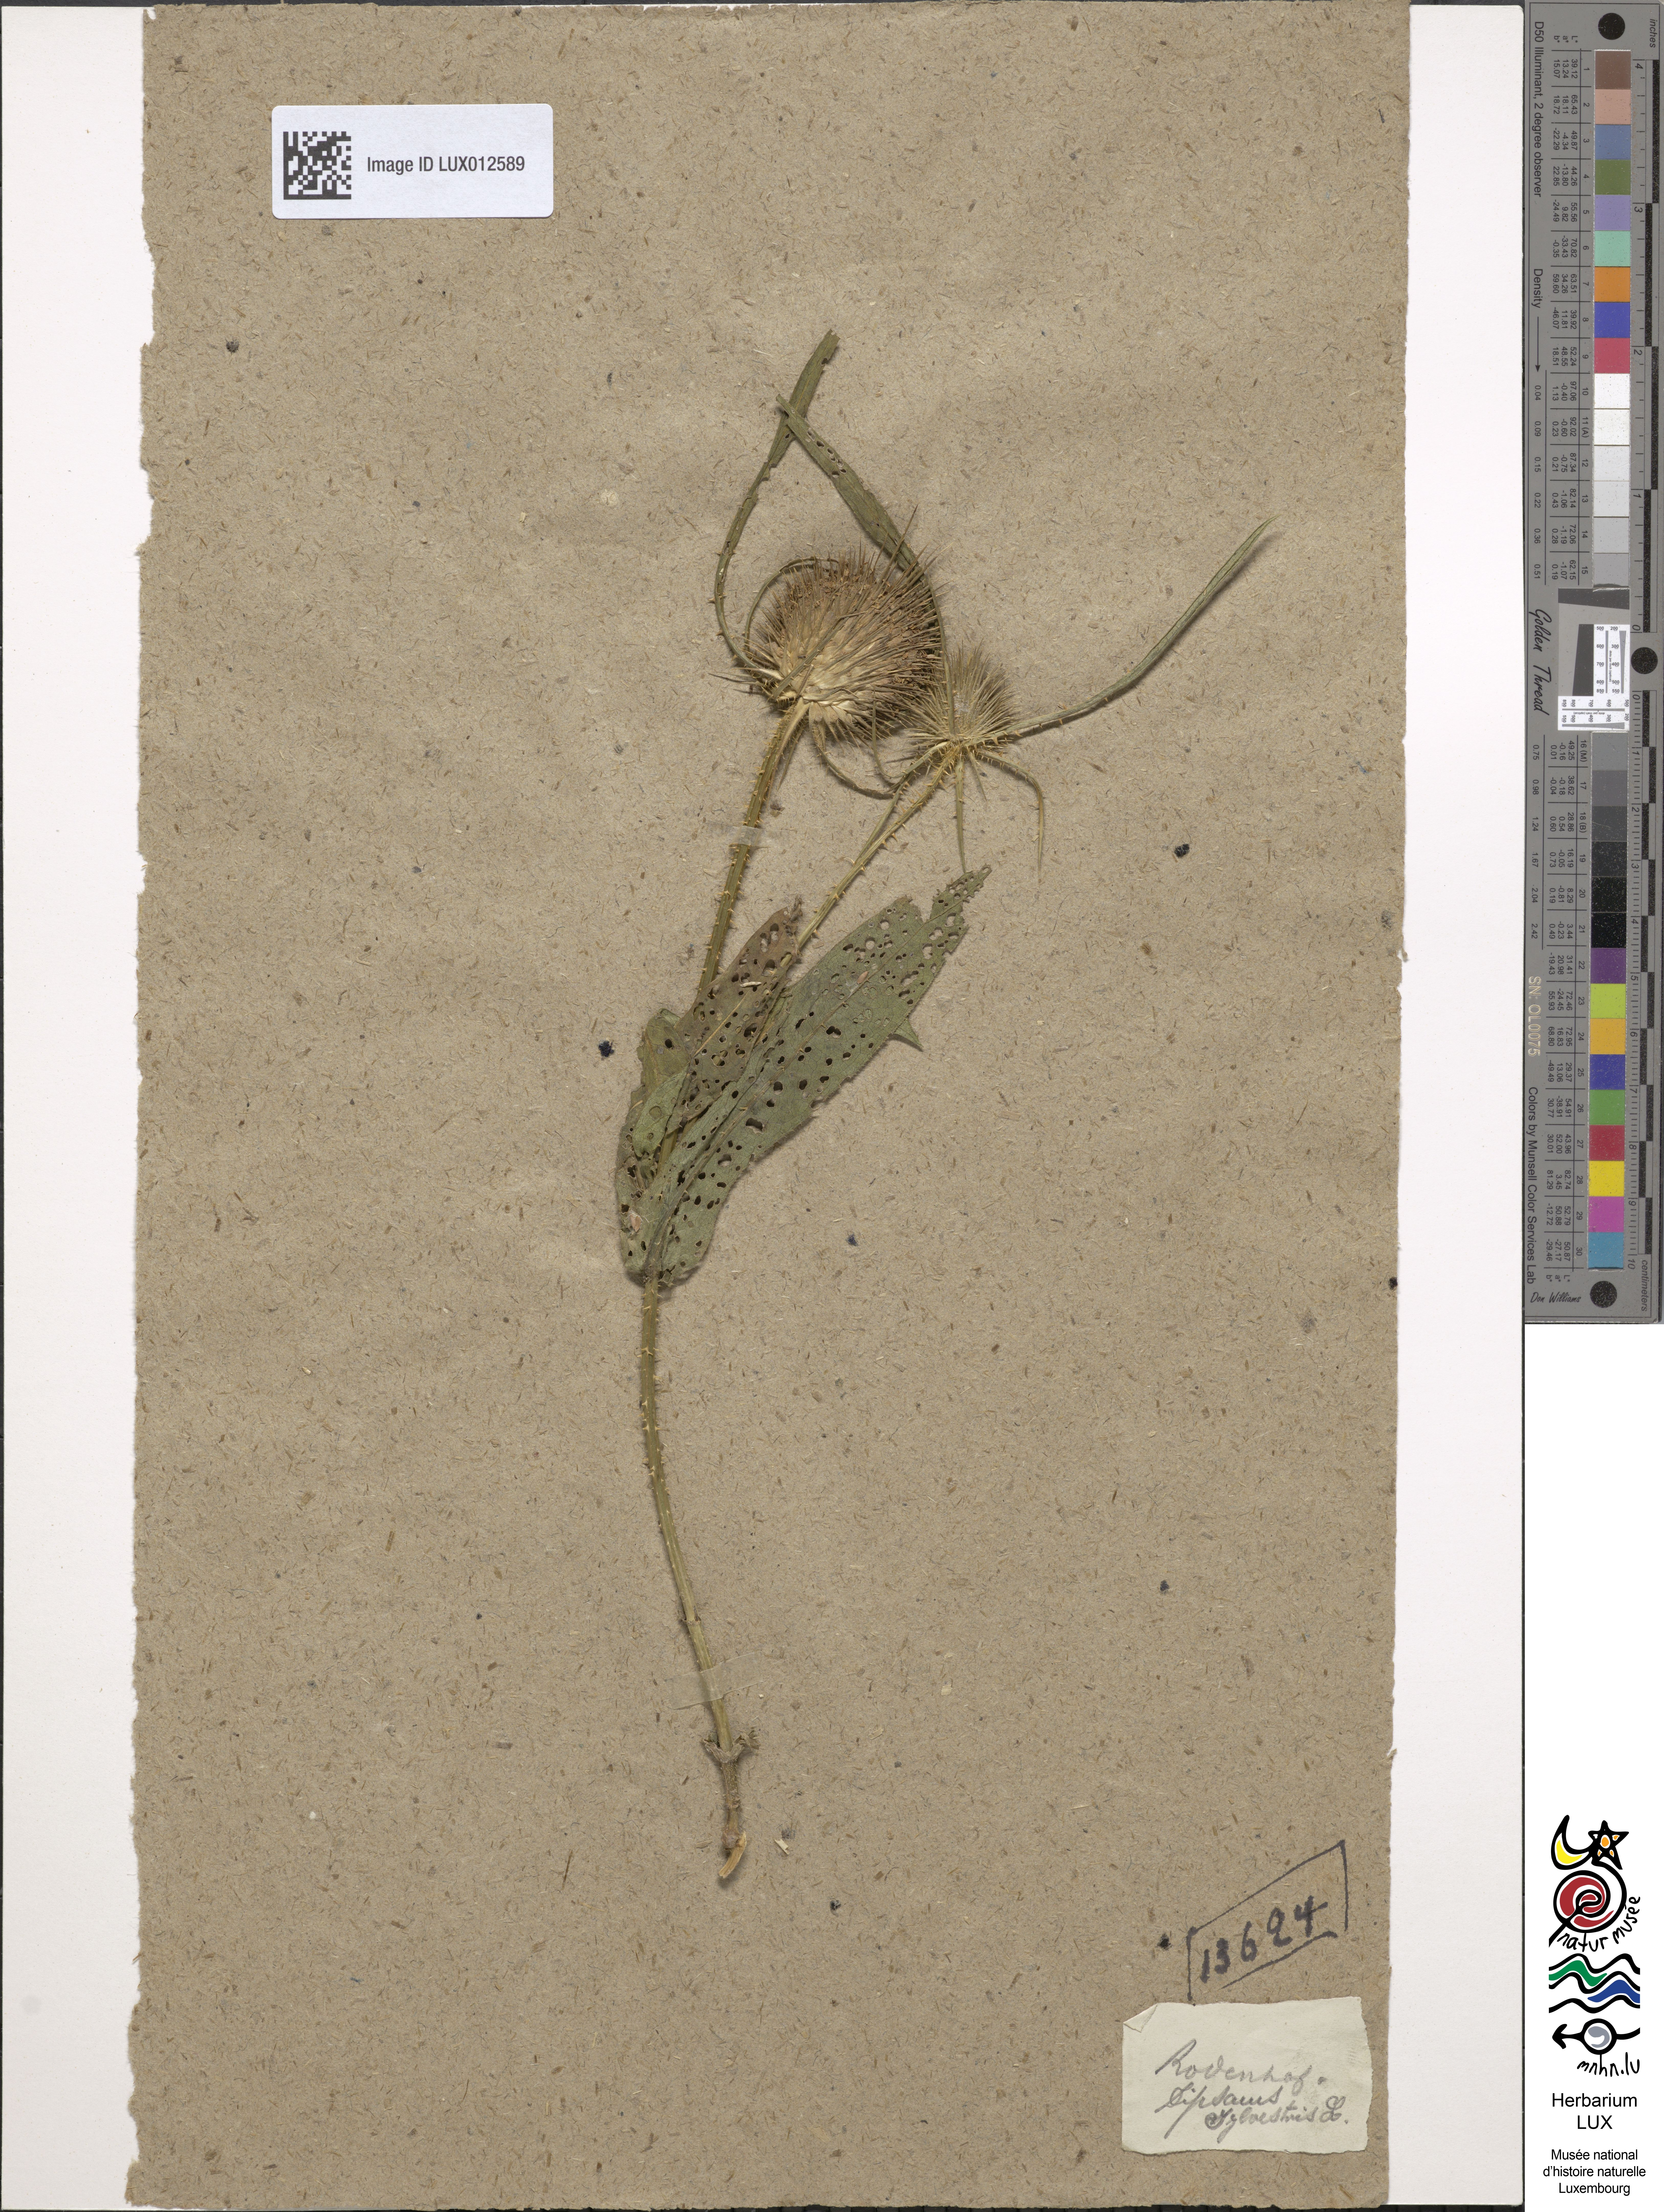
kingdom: Plantae
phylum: Tracheophyta
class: Magnoliopsida
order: Dipsacales
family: Caprifoliaceae
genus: Dipsacus
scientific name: Dipsacus fullonum
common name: Teasel
